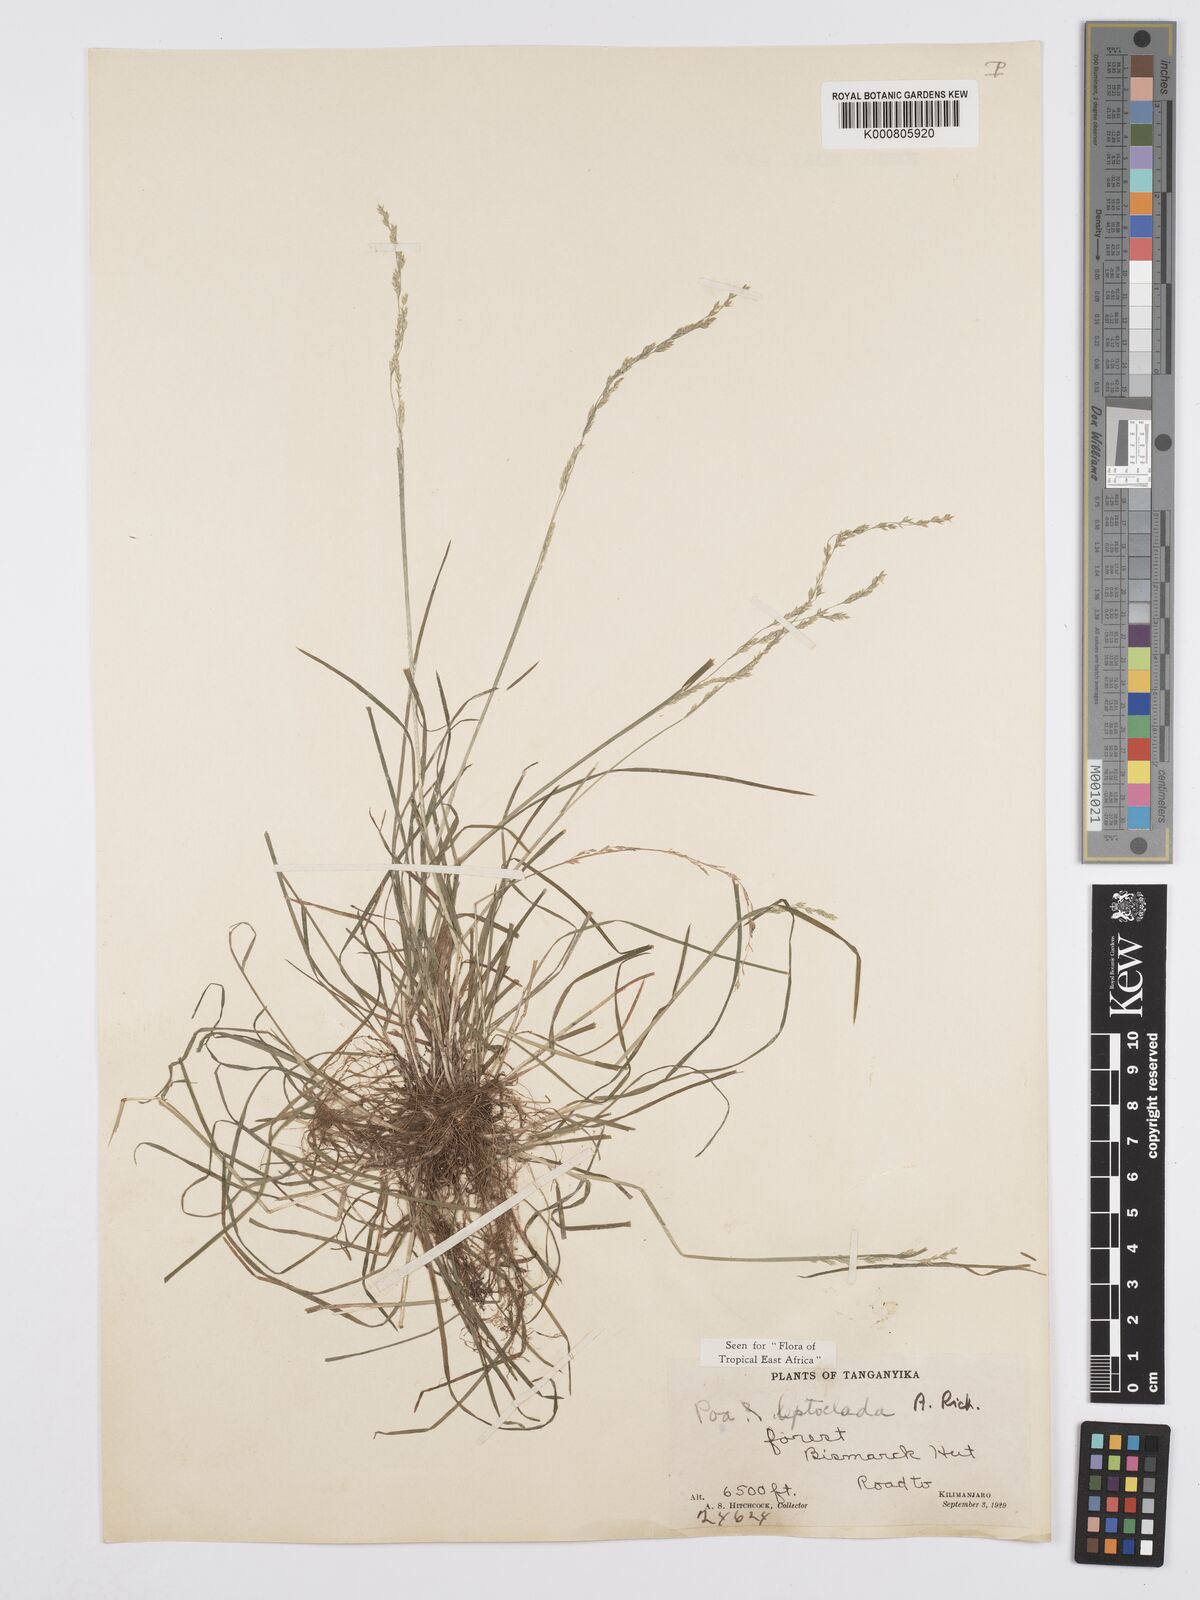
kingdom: Plantae
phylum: Tracheophyta
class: Liliopsida
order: Poales
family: Poaceae
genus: Poa
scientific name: Poa leptoclada
